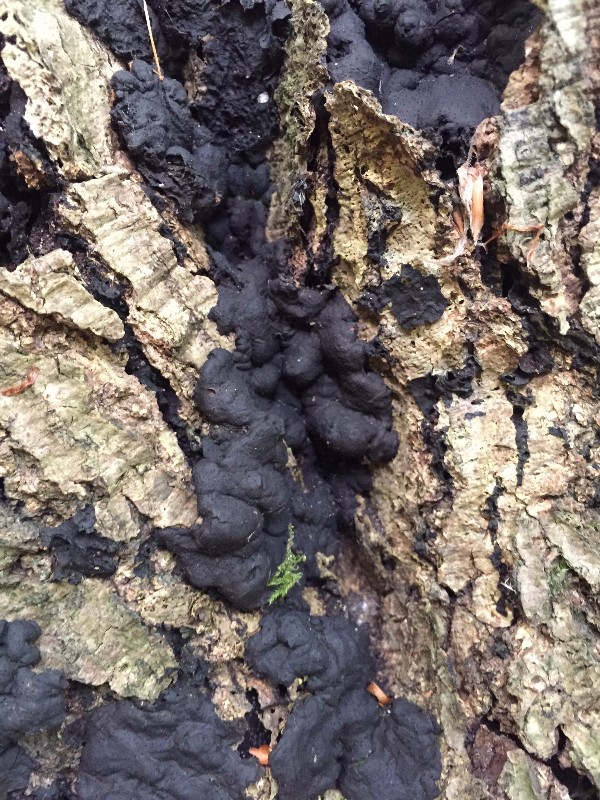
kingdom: Fungi
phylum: Ascomycota
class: Sordariomycetes
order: Xylariales
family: Xylariaceae
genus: Kretzschmaria
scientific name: Kretzschmaria deusta
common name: stor kulsvamp
